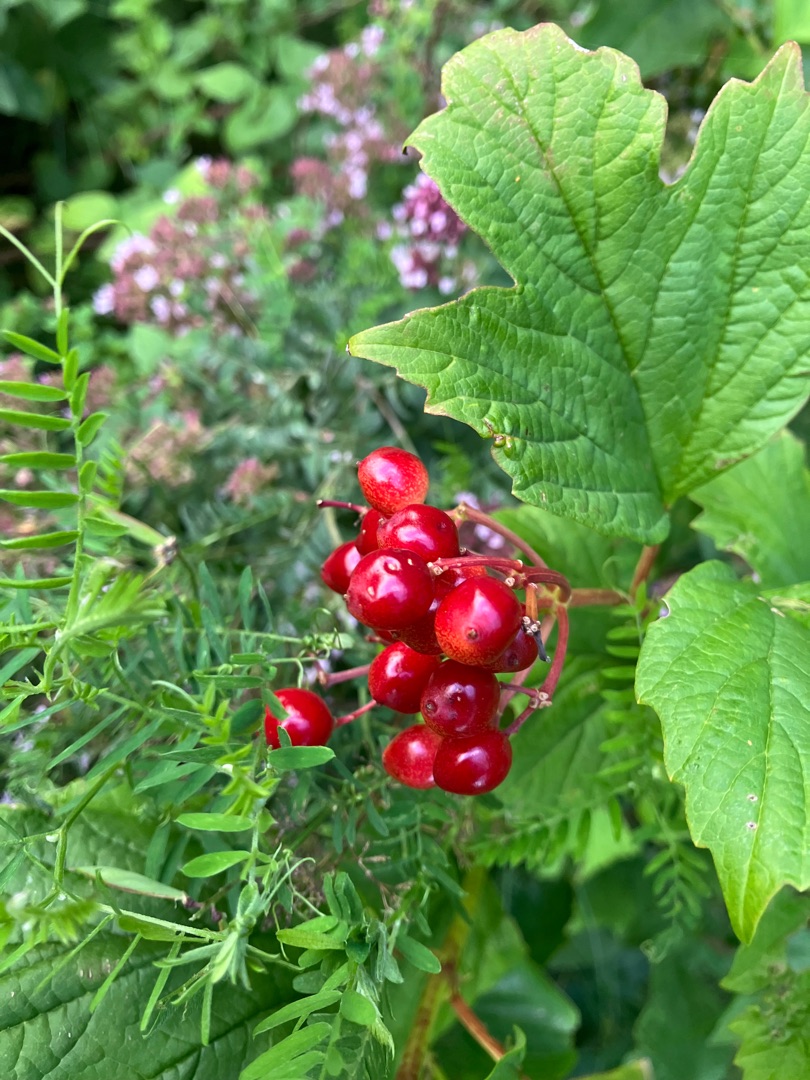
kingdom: Plantae
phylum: Tracheophyta
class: Magnoliopsida
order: Dipsacales
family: Viburnaceae
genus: Viburnum
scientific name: Viburnum opulus
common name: Kvalkved
